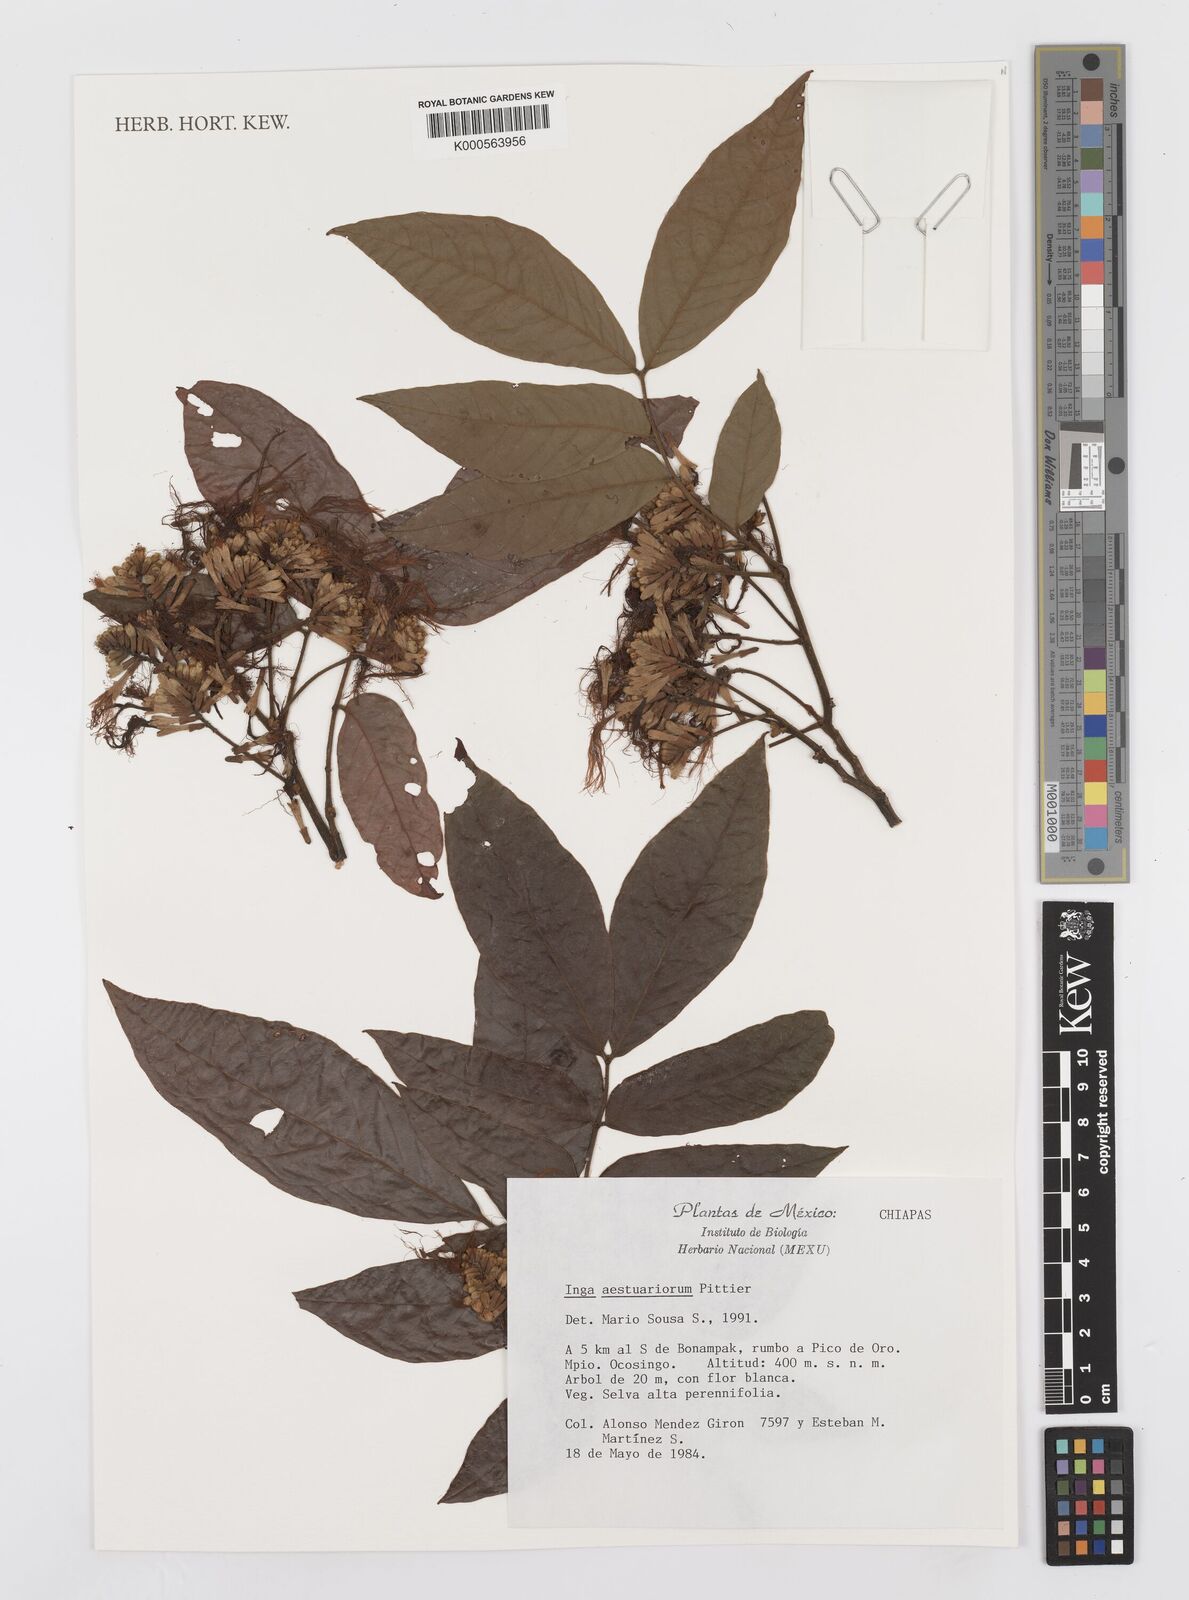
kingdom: Plantae
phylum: Tracheophyta
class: Magnoliopsida
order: Fabales
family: Fabaceae
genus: Inga
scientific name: Inga multijuga
